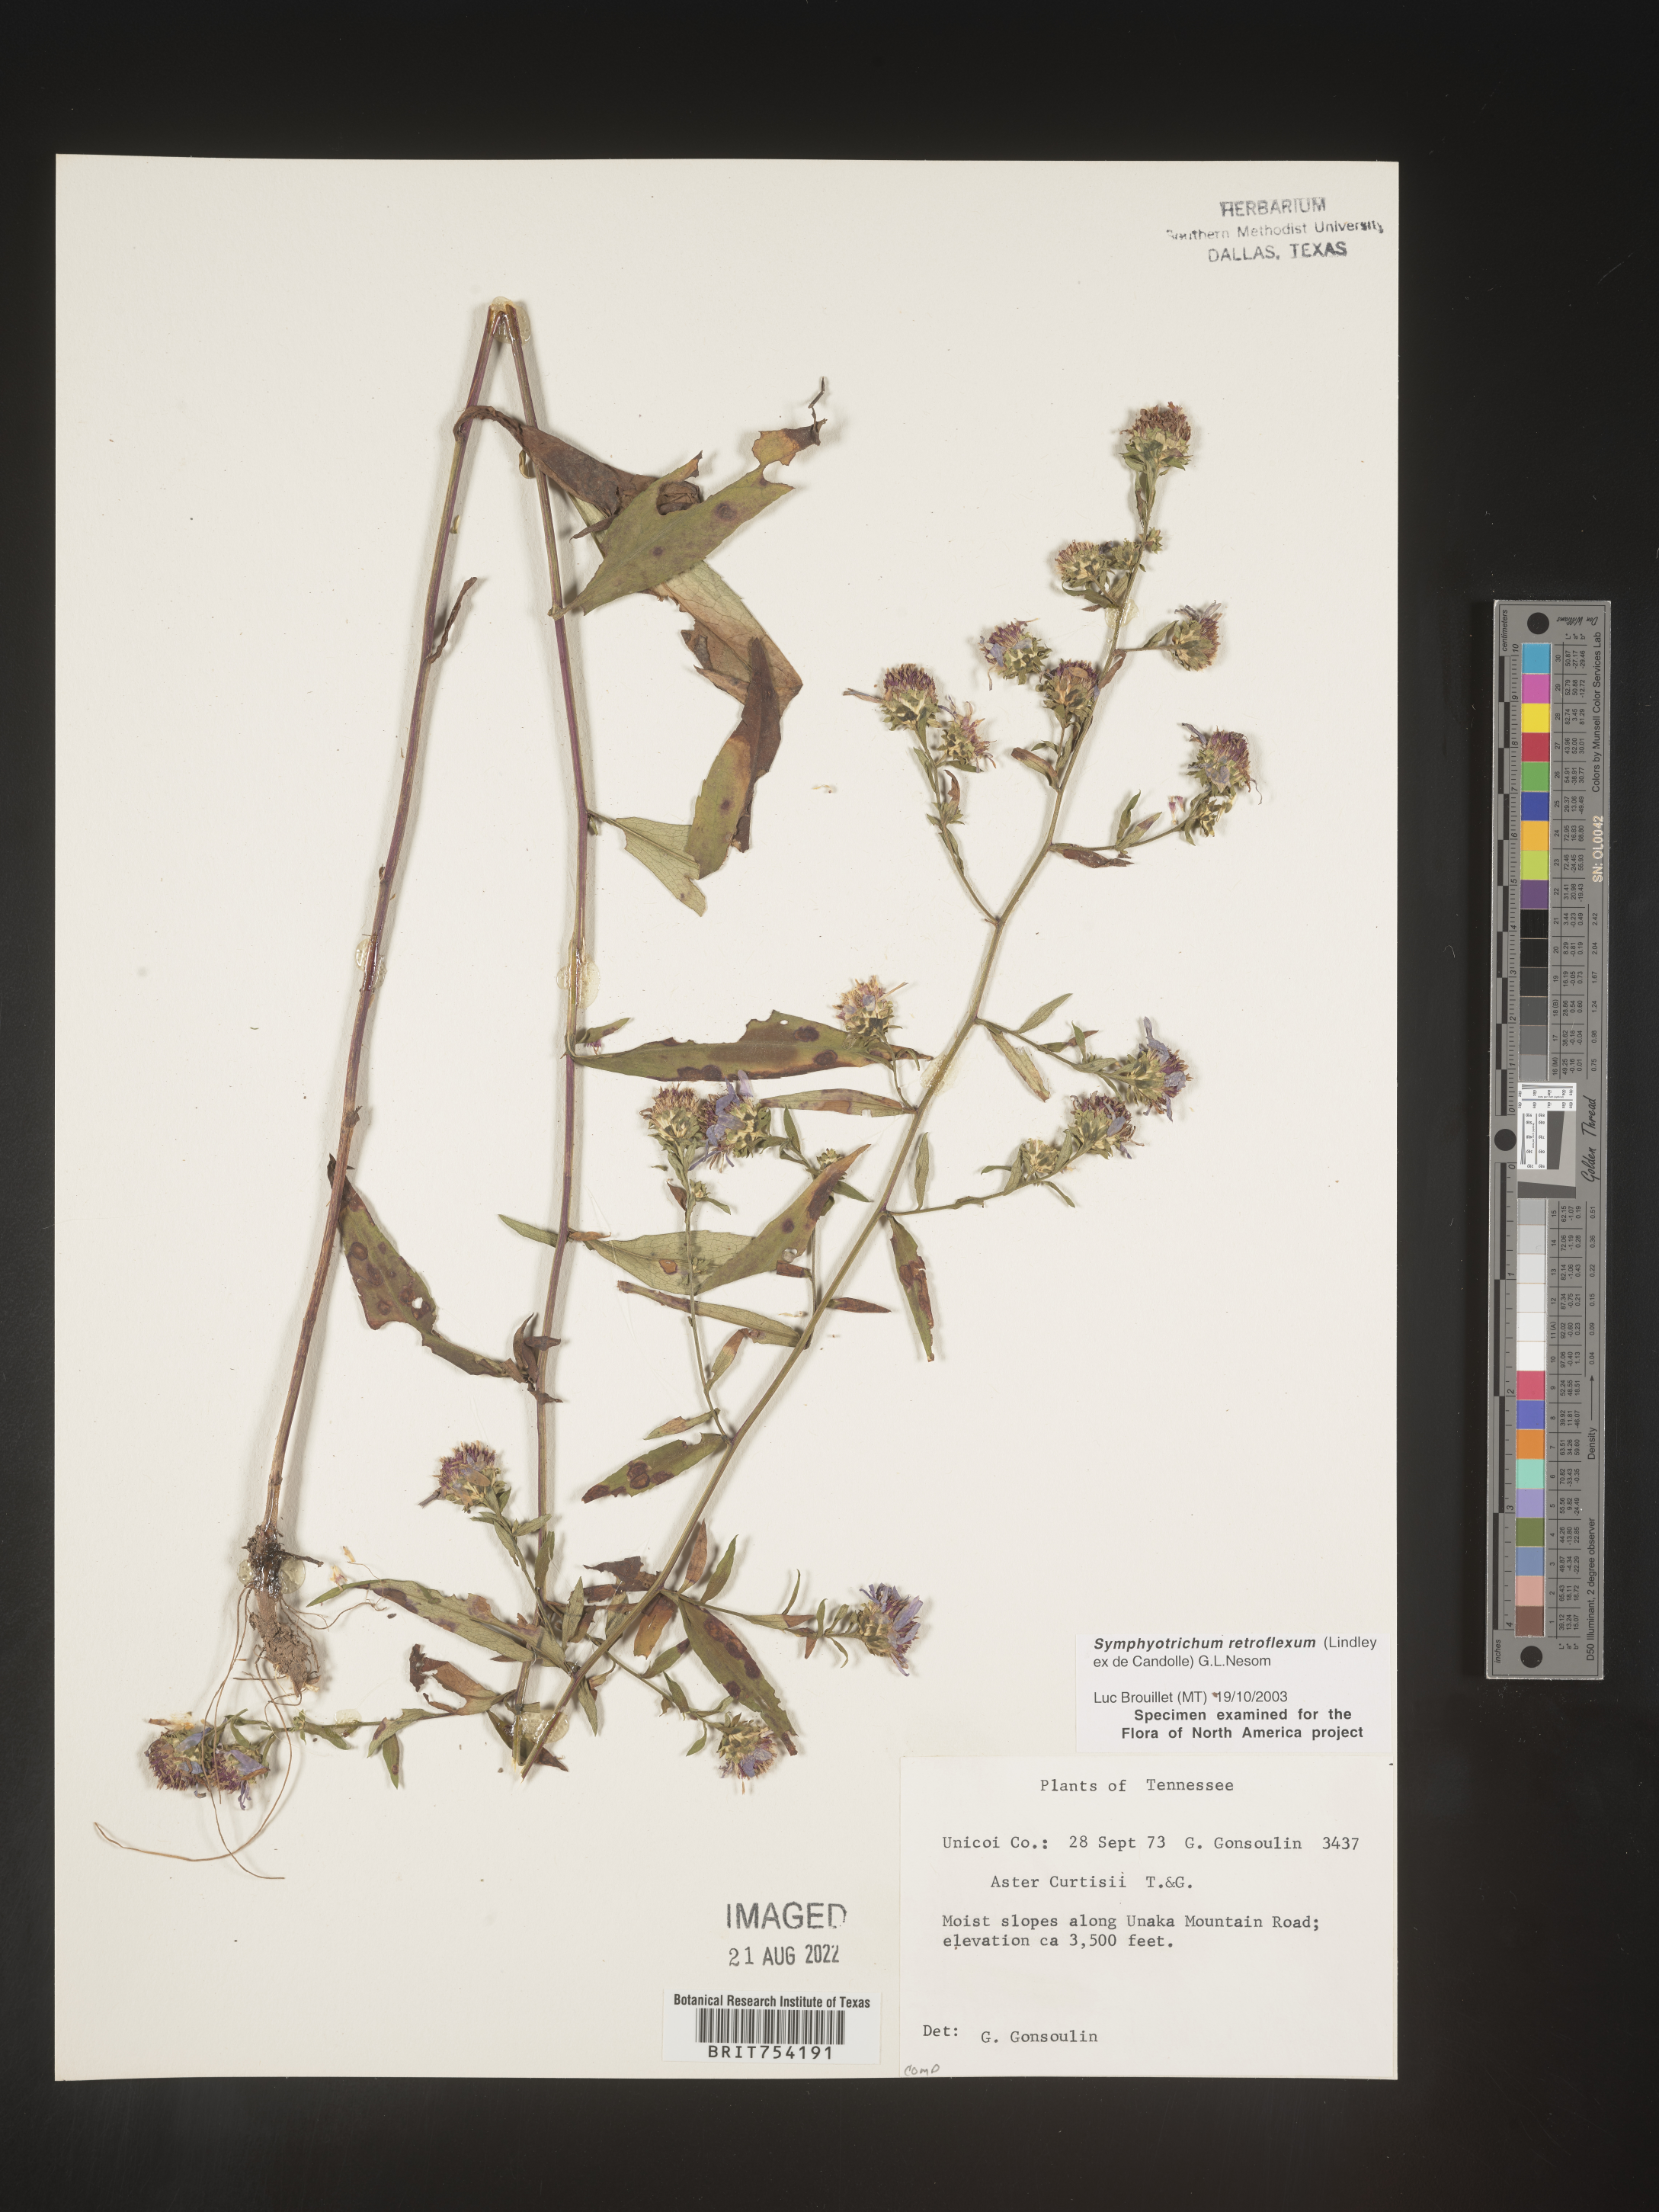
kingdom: Plantae
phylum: Tracheophyta
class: Magnoliopsida
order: Asterales
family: Asteraceae
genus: Symphyotrichum
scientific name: Symphyotrichum retroflexum
